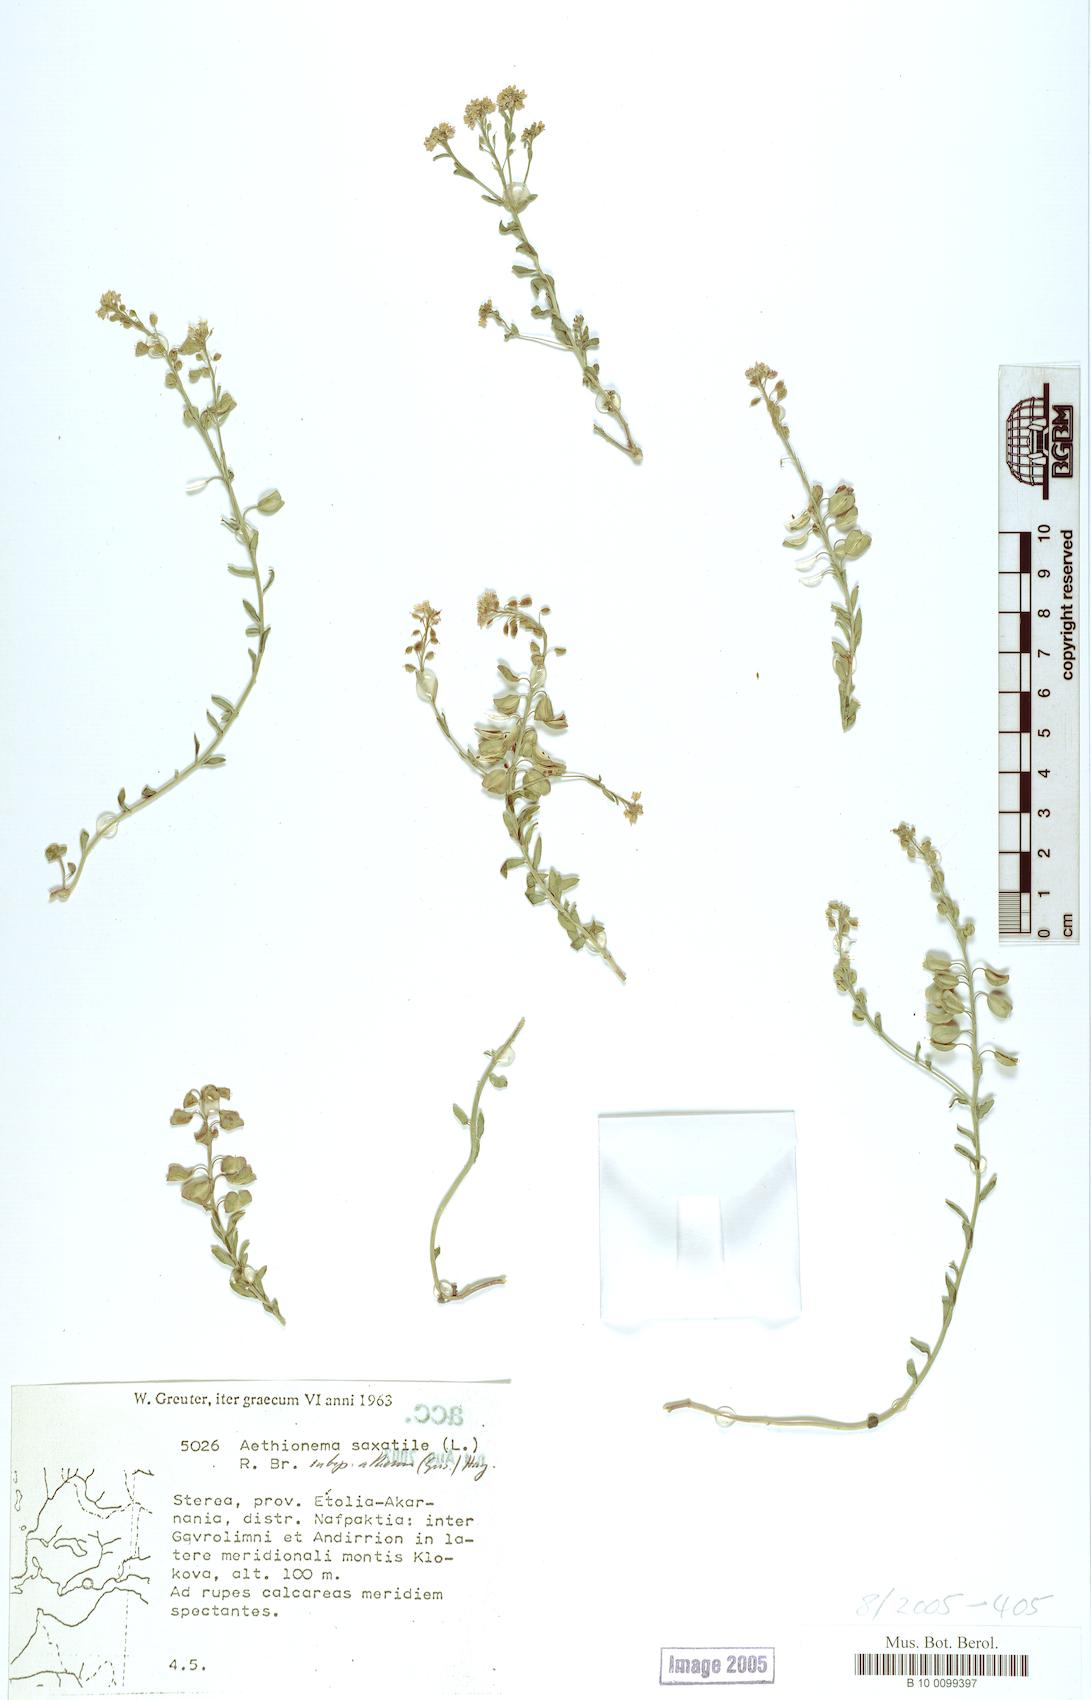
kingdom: Plantae
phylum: Tracheophyta
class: Magnoliopsida
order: Brassicales
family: Brassicaceae
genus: Aethionema
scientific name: Aethionema saxatile
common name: Burnt candytuft
